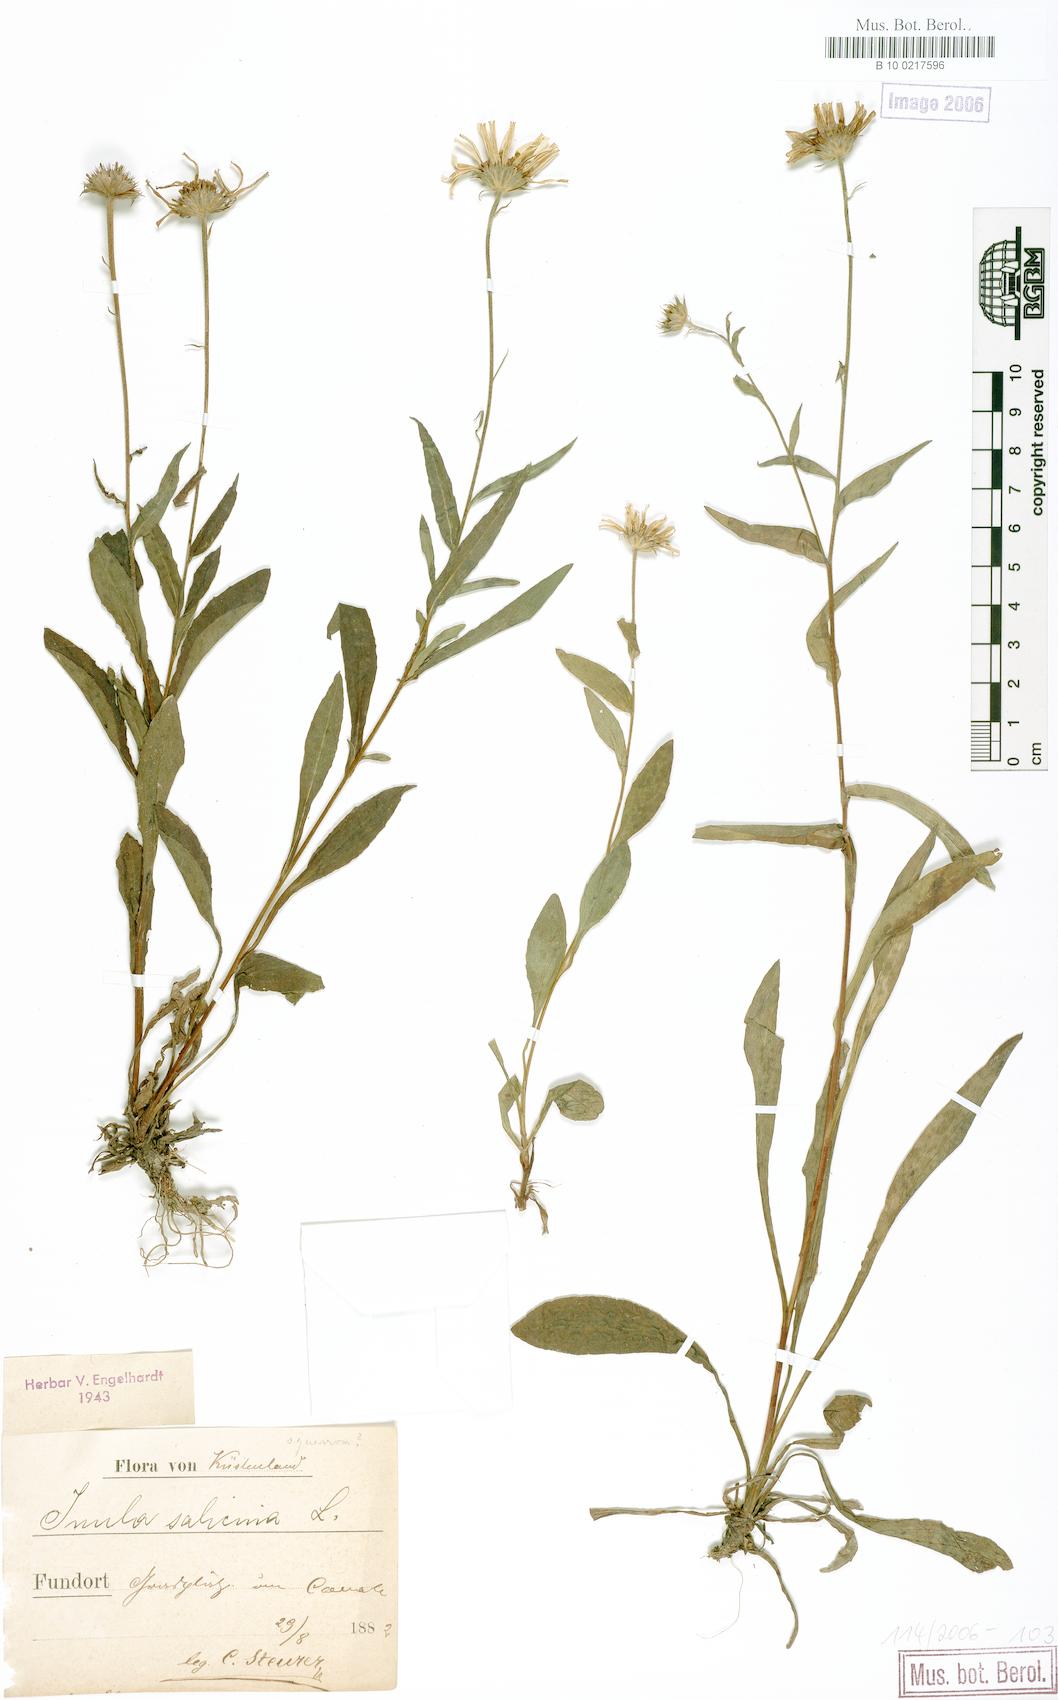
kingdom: Plantae
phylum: Tracheophyta
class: Magnoliopsida
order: Asterales
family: Asteraceae
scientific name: Asteraceae
